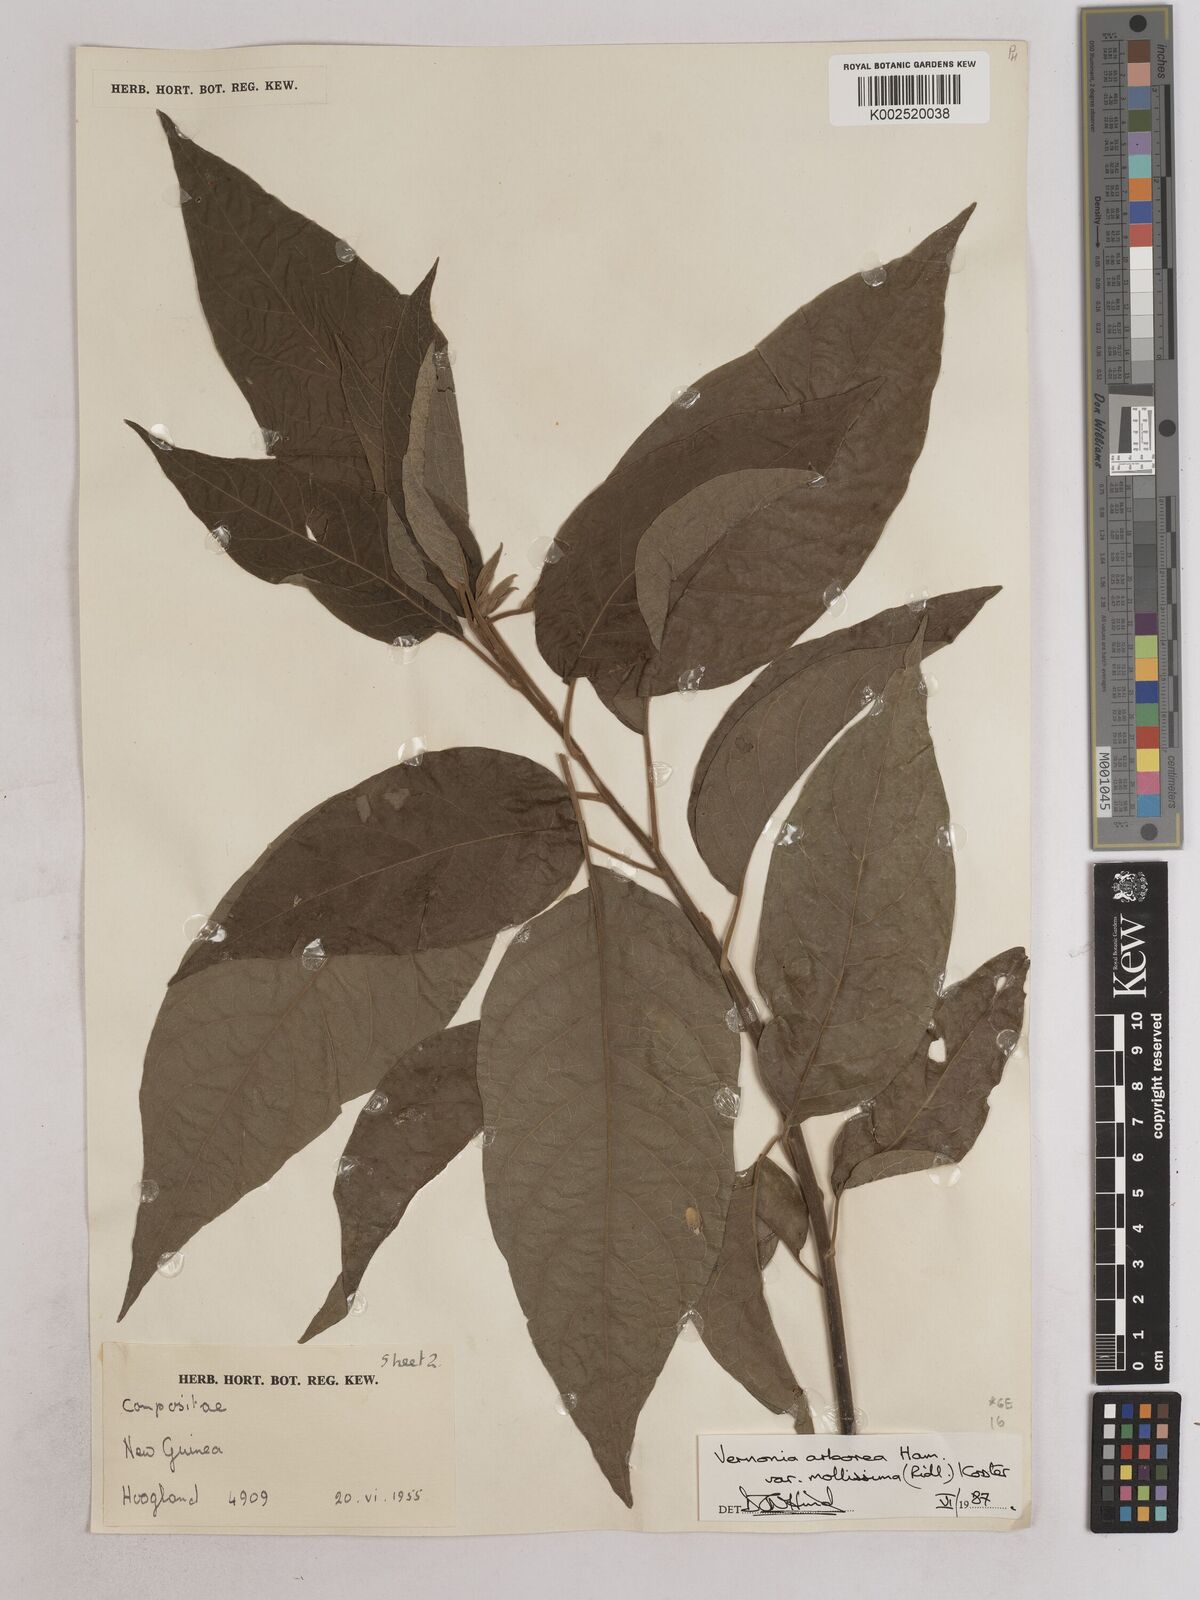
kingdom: Plantae
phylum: Tracheophyta
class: Magnoliopsida
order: Asterales
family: Asteraceae
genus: Strobocalyx
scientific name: Strobocalyx arborea
